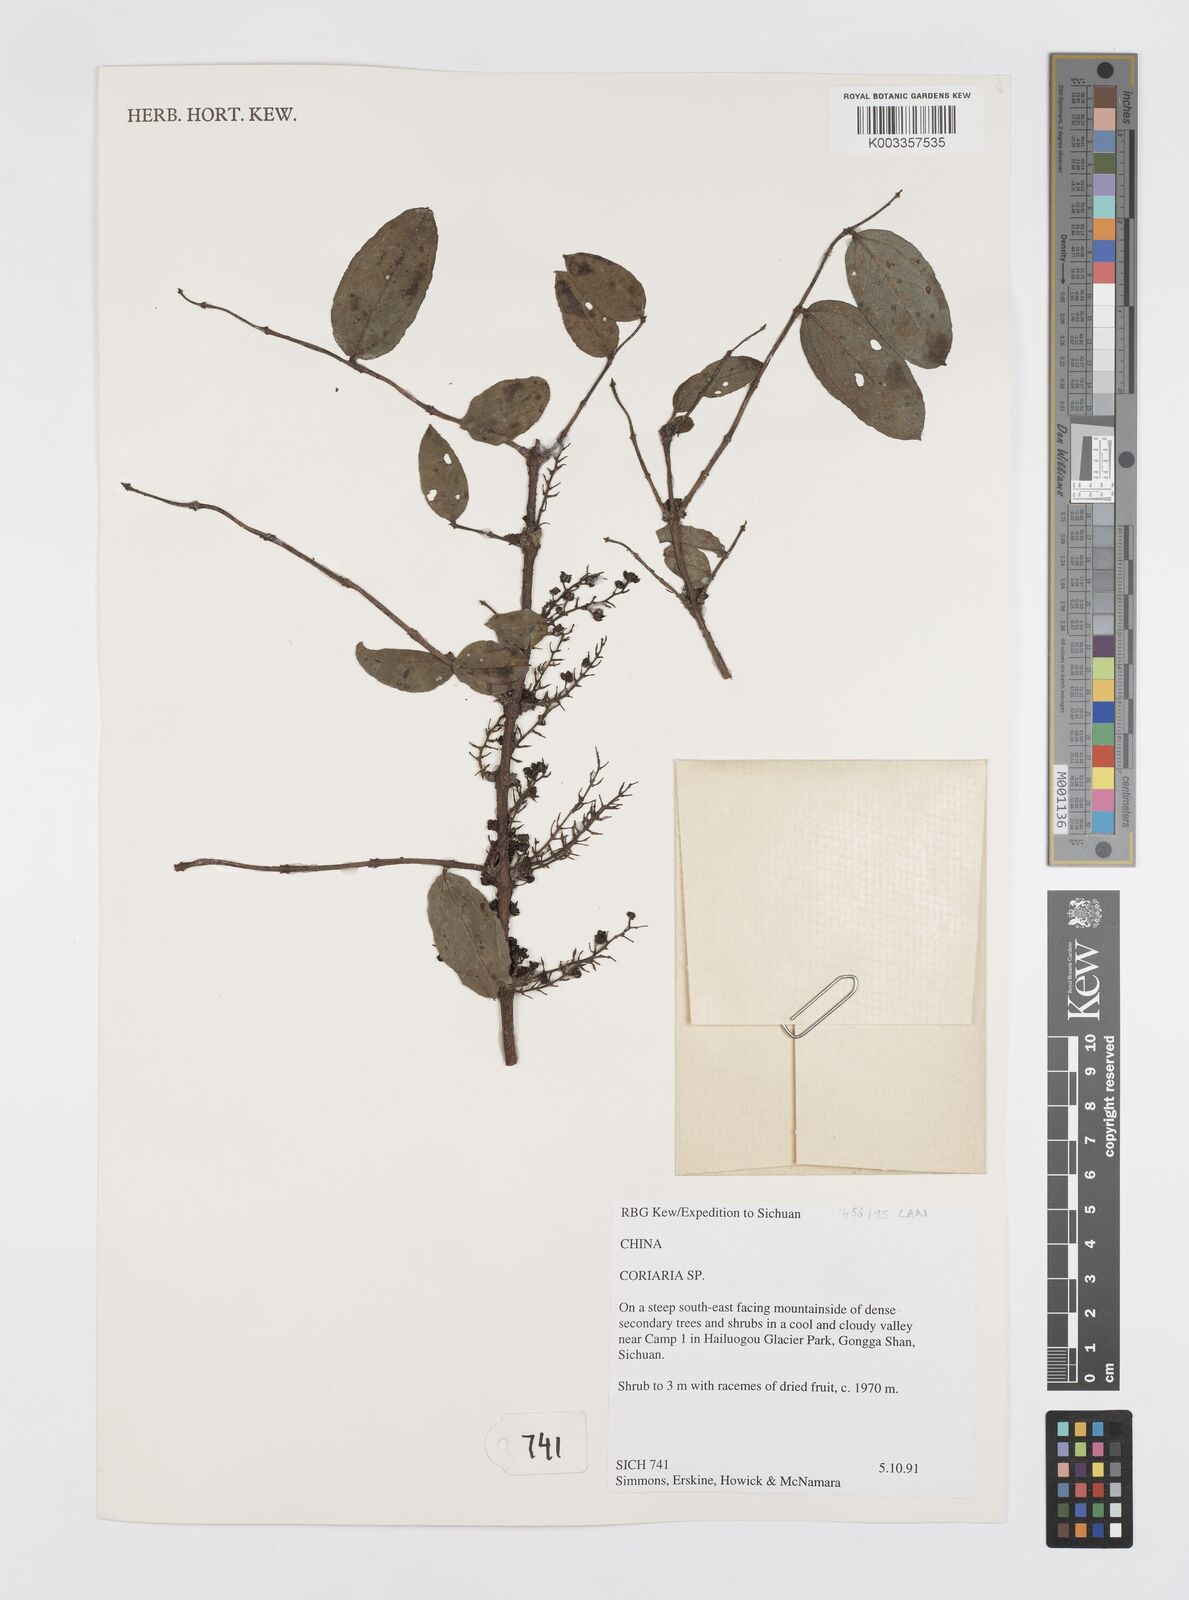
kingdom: Plantae
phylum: Tracheophyta
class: Magnoliopsida
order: Cucurbitales
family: Coriariaceae
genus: Coriaria
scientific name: Coriaria napalensis
